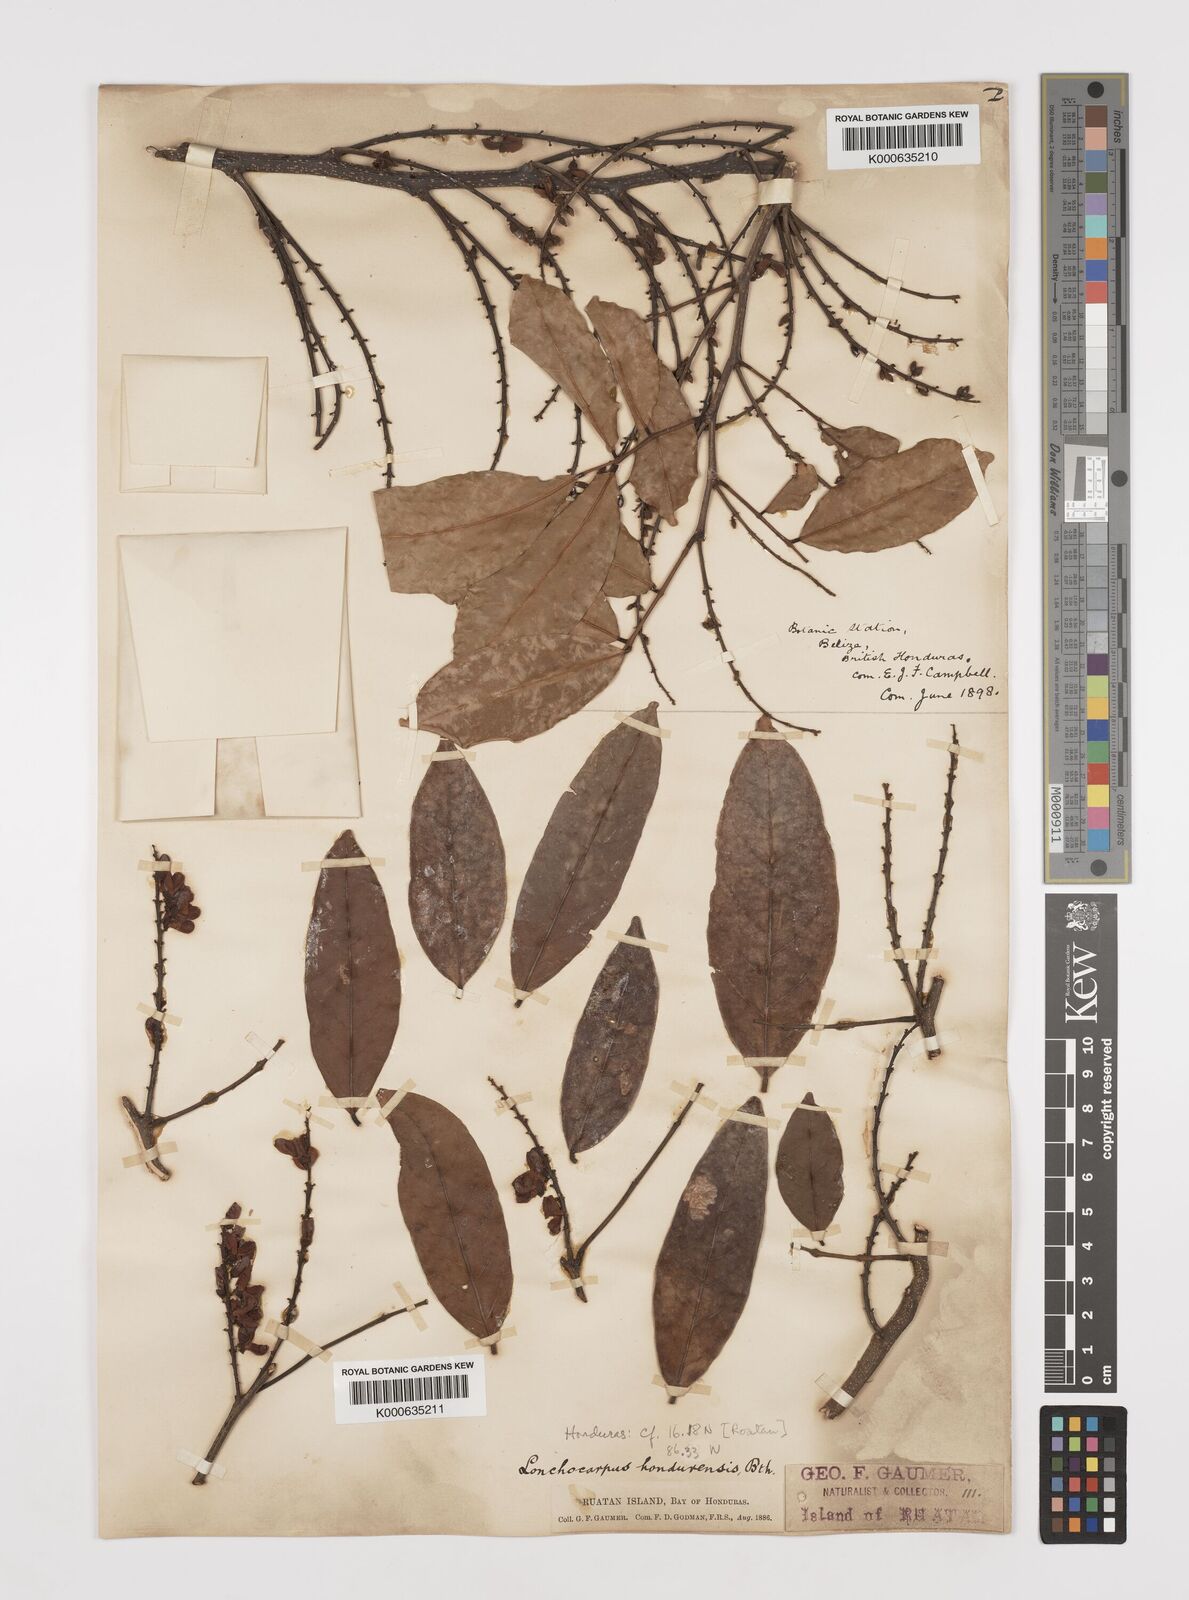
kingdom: Plantae
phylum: Tracheophyta
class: Magnoliopsida
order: Fabales
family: Fabaceae
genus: Lonchocarpus
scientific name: Lonchocarpus hondurensis
